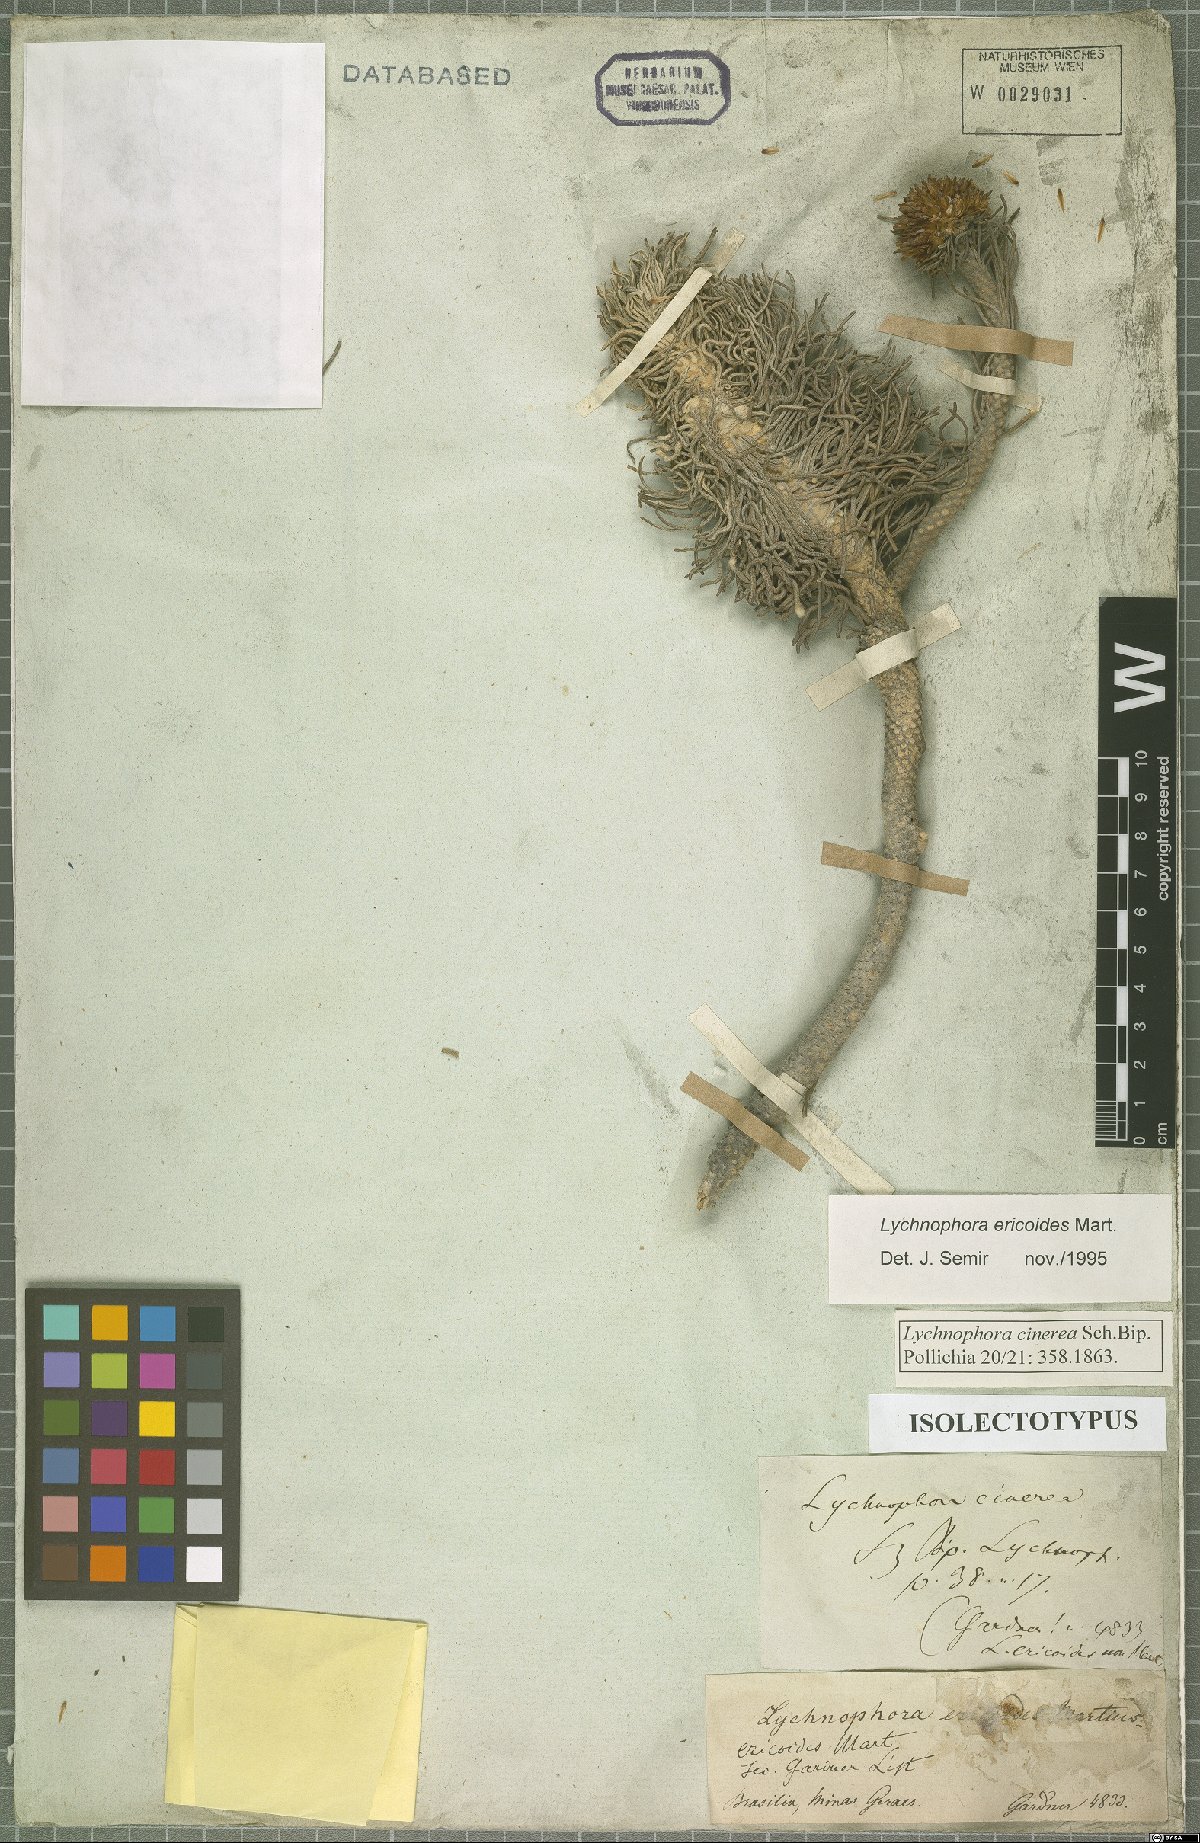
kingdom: Plantae
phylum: Tracheophyta
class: Magnoliopsida
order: Asterales
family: Asteraceae
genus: Lychnophora
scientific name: Lychnophora ericoides
